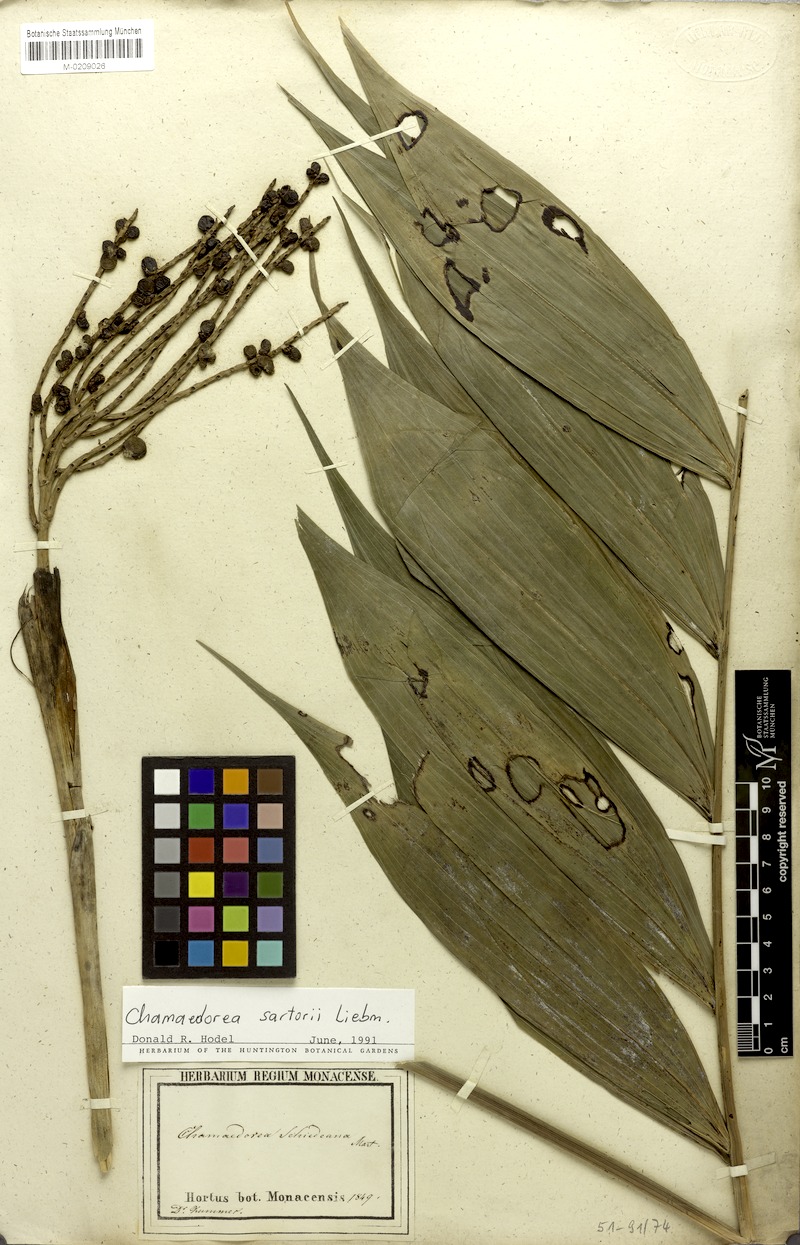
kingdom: Plantae
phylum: Tracheophyta
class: Liliopsida
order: Arecales
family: Arecaceae
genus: Chamaedorea
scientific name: Chamaedorea sartorii
